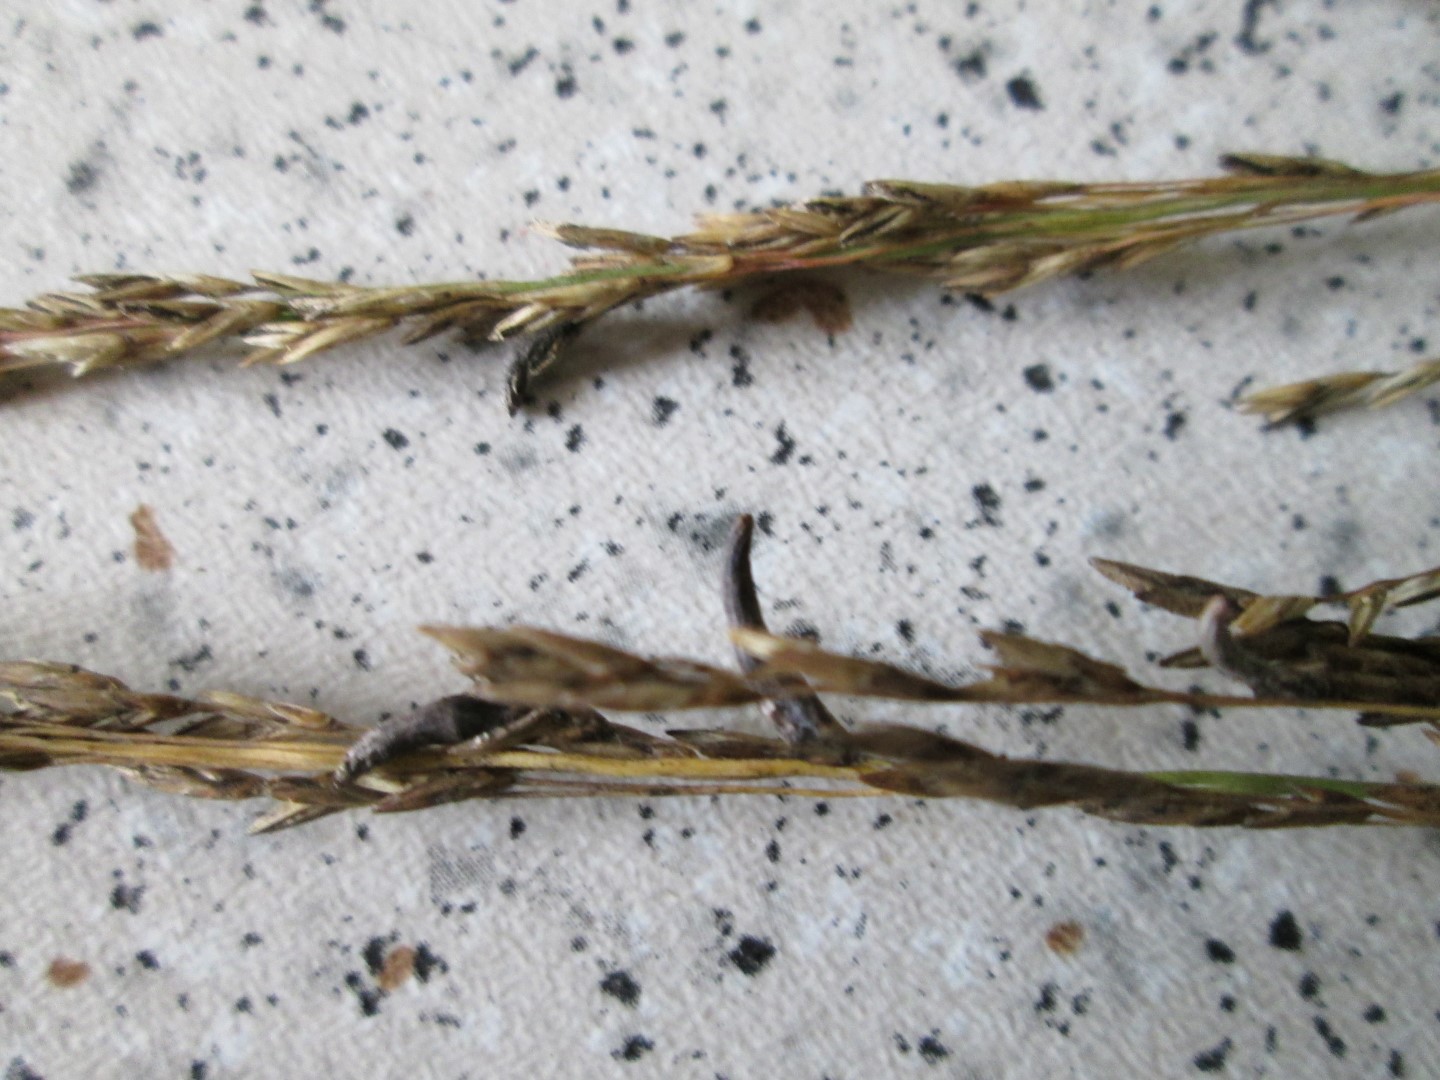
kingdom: Fungi
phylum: Ascomycota
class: Sordariomycetes
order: Hypocreales
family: Clavicipitaceae
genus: Claviceps
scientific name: Claviceps purpurea
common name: almindelig meldrøjer
